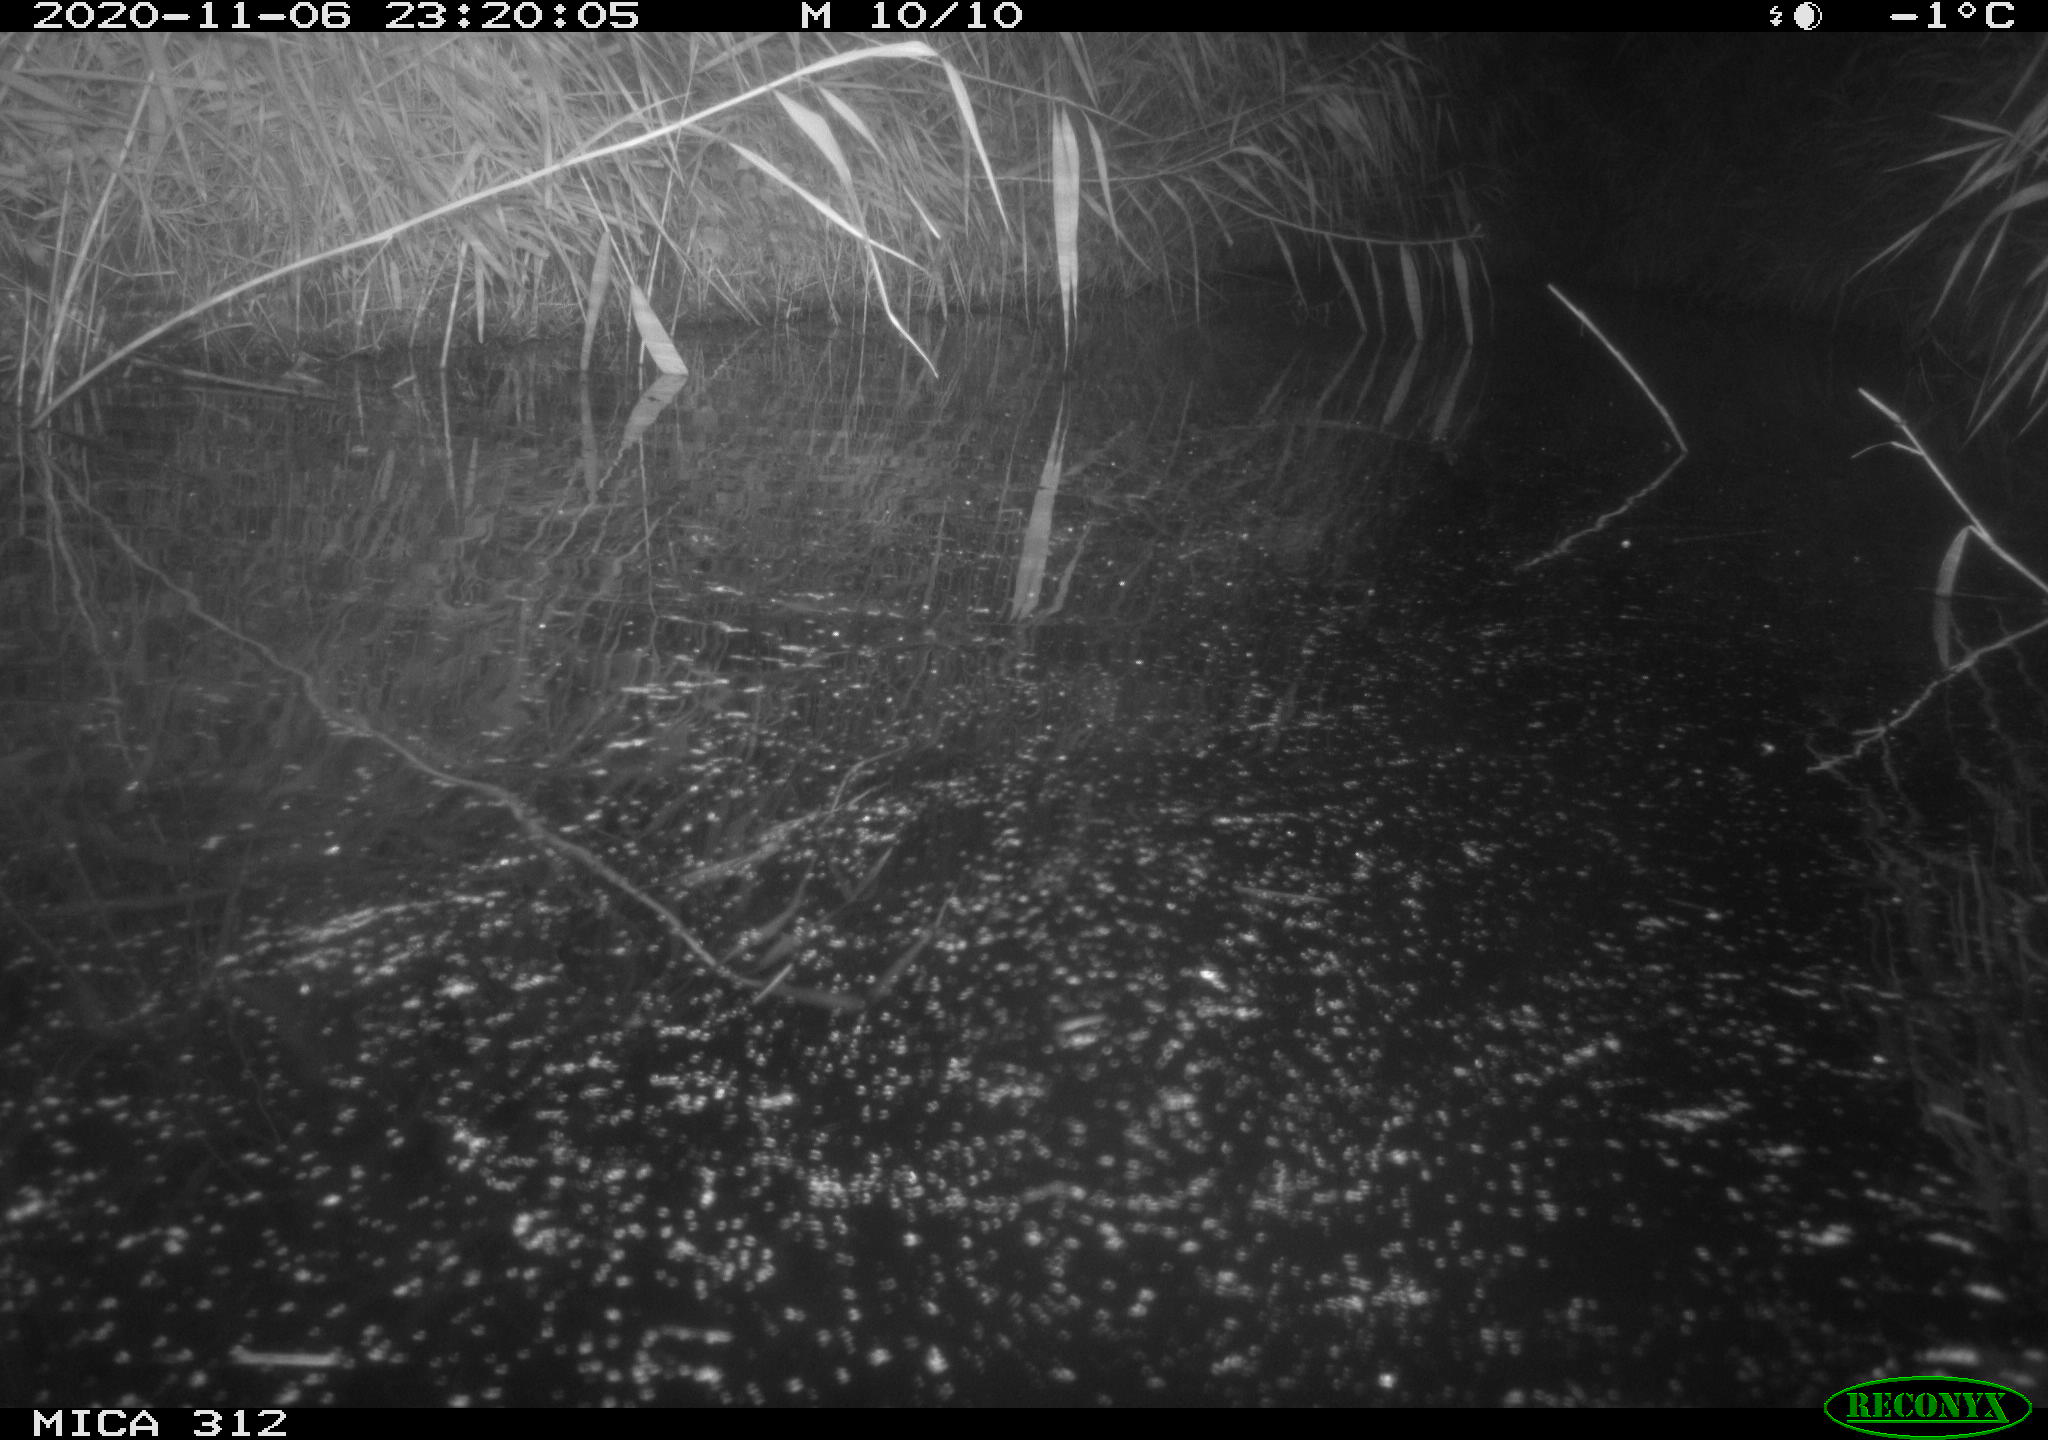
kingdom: Animalia
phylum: Chordata
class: Mammalia
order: Rodentia
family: Muridae
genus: Rattus
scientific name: Rattus norvegicus
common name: Brown rat
